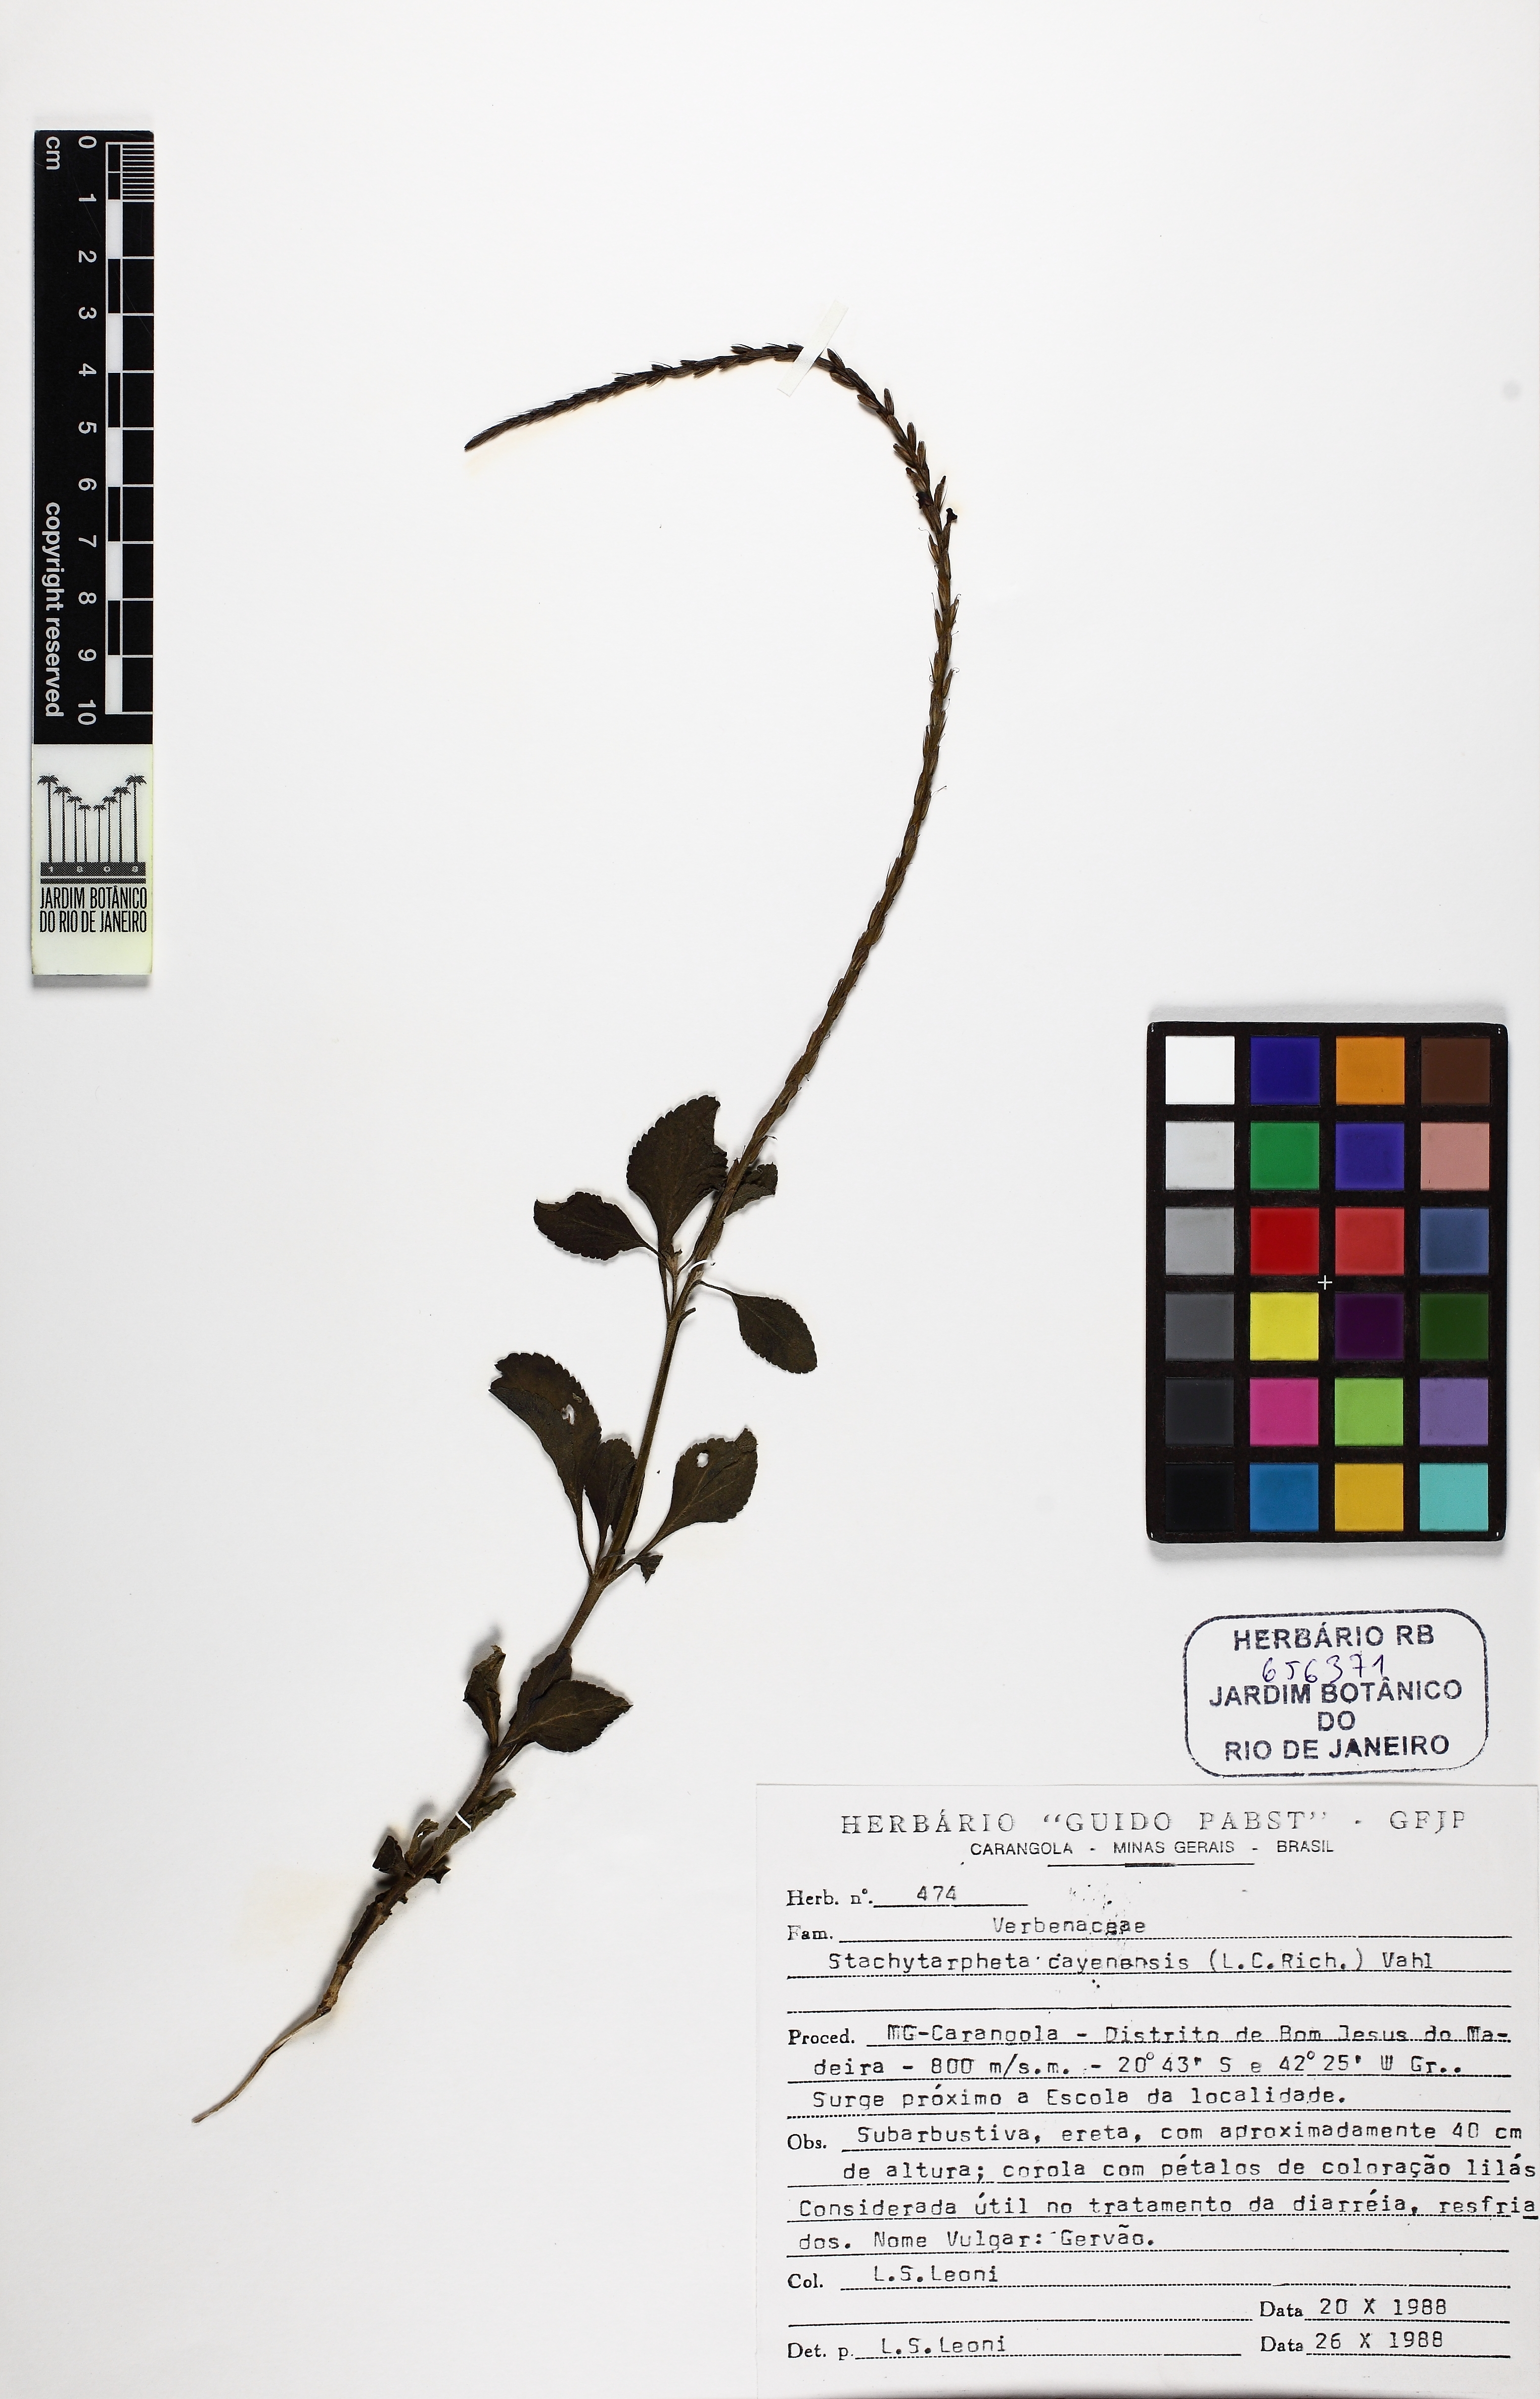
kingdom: Plantae
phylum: Tracheophyta
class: Magnoliopsida
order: Lamiales
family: Verbenaceae
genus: Stachytarpheta
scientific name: Stachytarpheta cayennensis
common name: Cayenne porterweed
